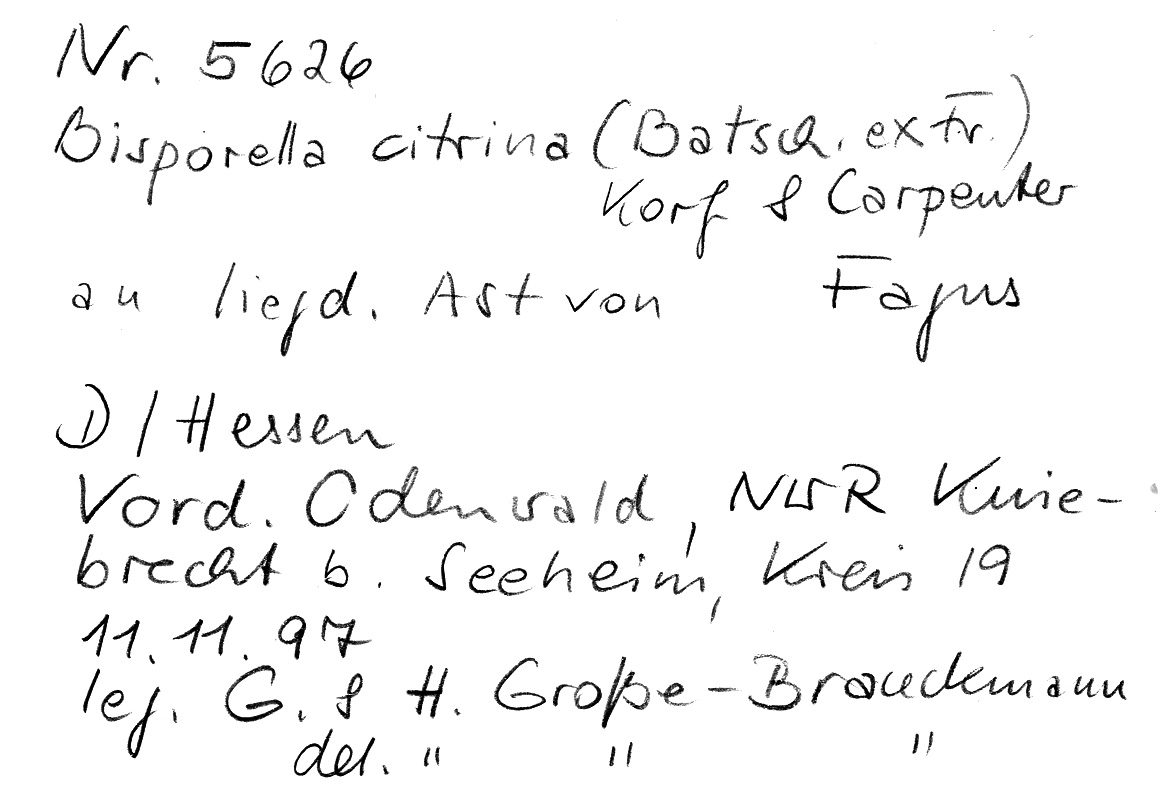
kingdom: Fungi
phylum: Ascomycota
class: Leotiomycetes
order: Helotiales
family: Pezizellaceae
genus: Calycina
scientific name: Calycina citrina
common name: Yellow fairy cups
